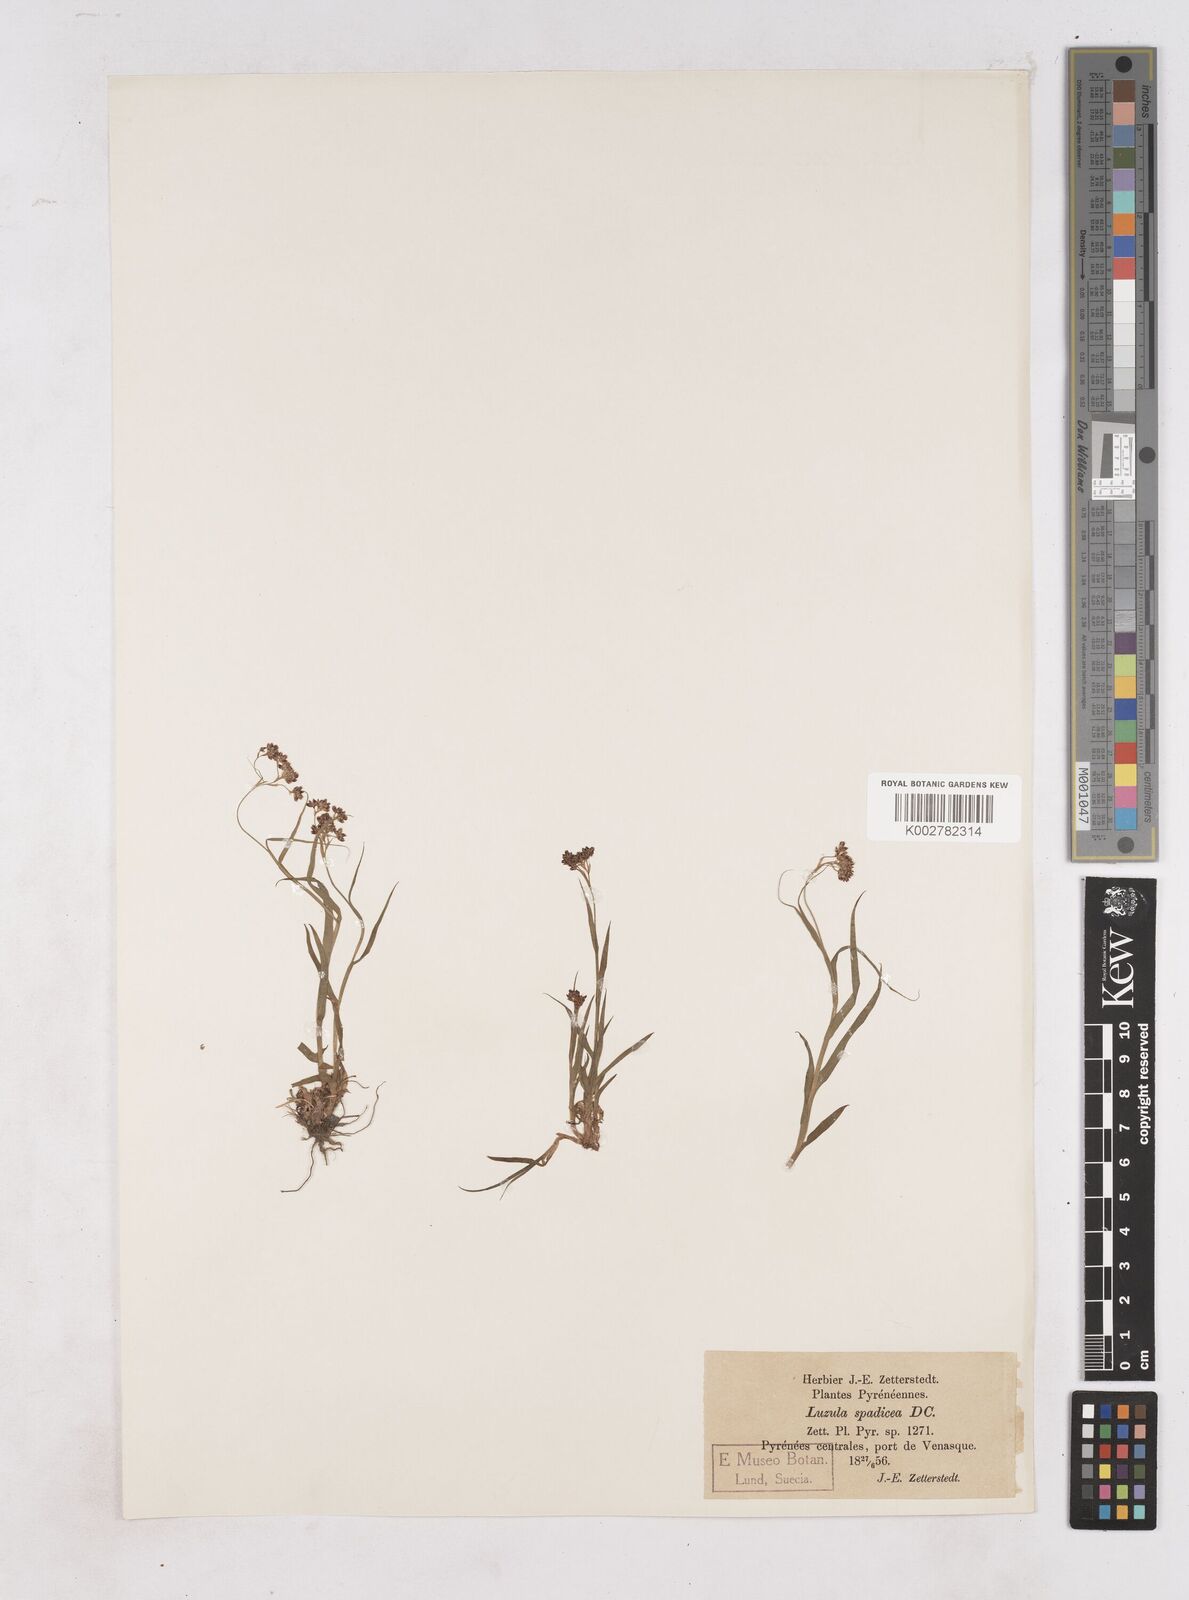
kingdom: Plantae
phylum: Tracheophyta
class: Liliopsida
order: Poales
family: Juncaceae
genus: Luzula
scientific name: Luzula alpinopilosa
